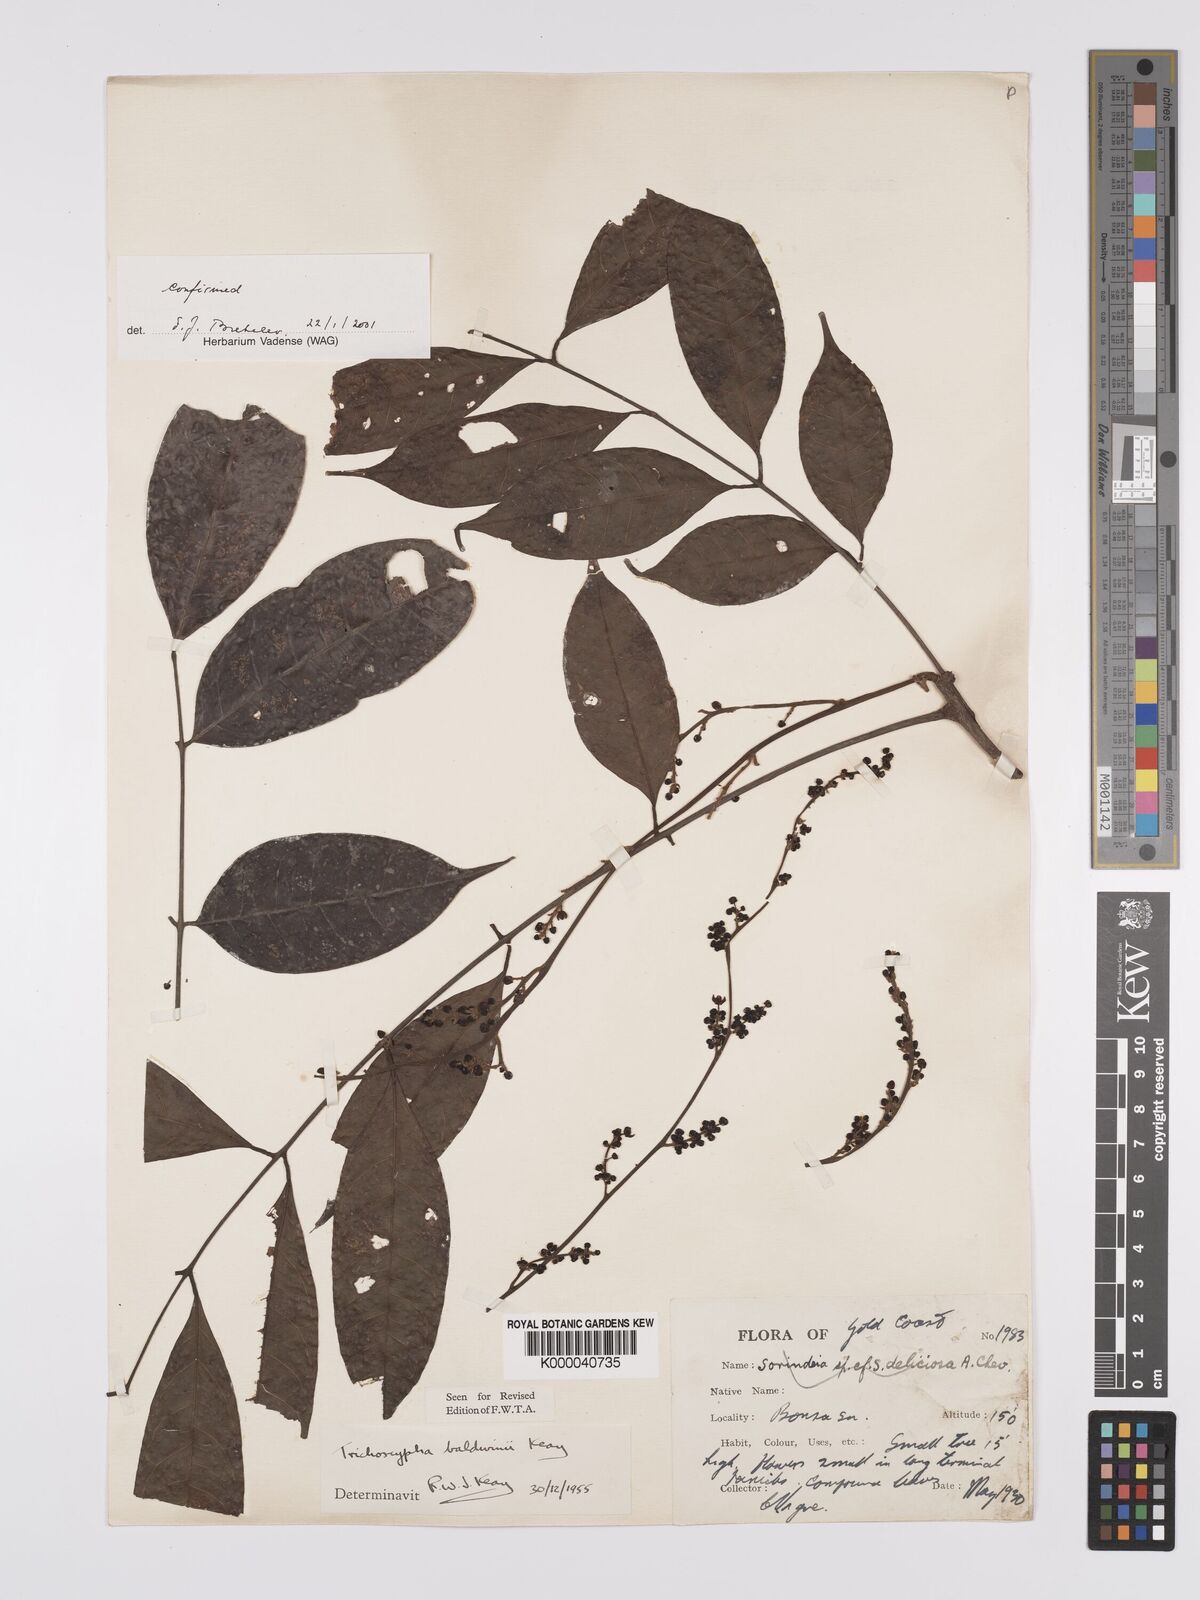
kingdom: Plantae
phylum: Tracheophyta
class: Magnoliopsida
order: Sapindales
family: Anacardiaceae
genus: Trichoscypha
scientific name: Trichoscypha baldwinii
